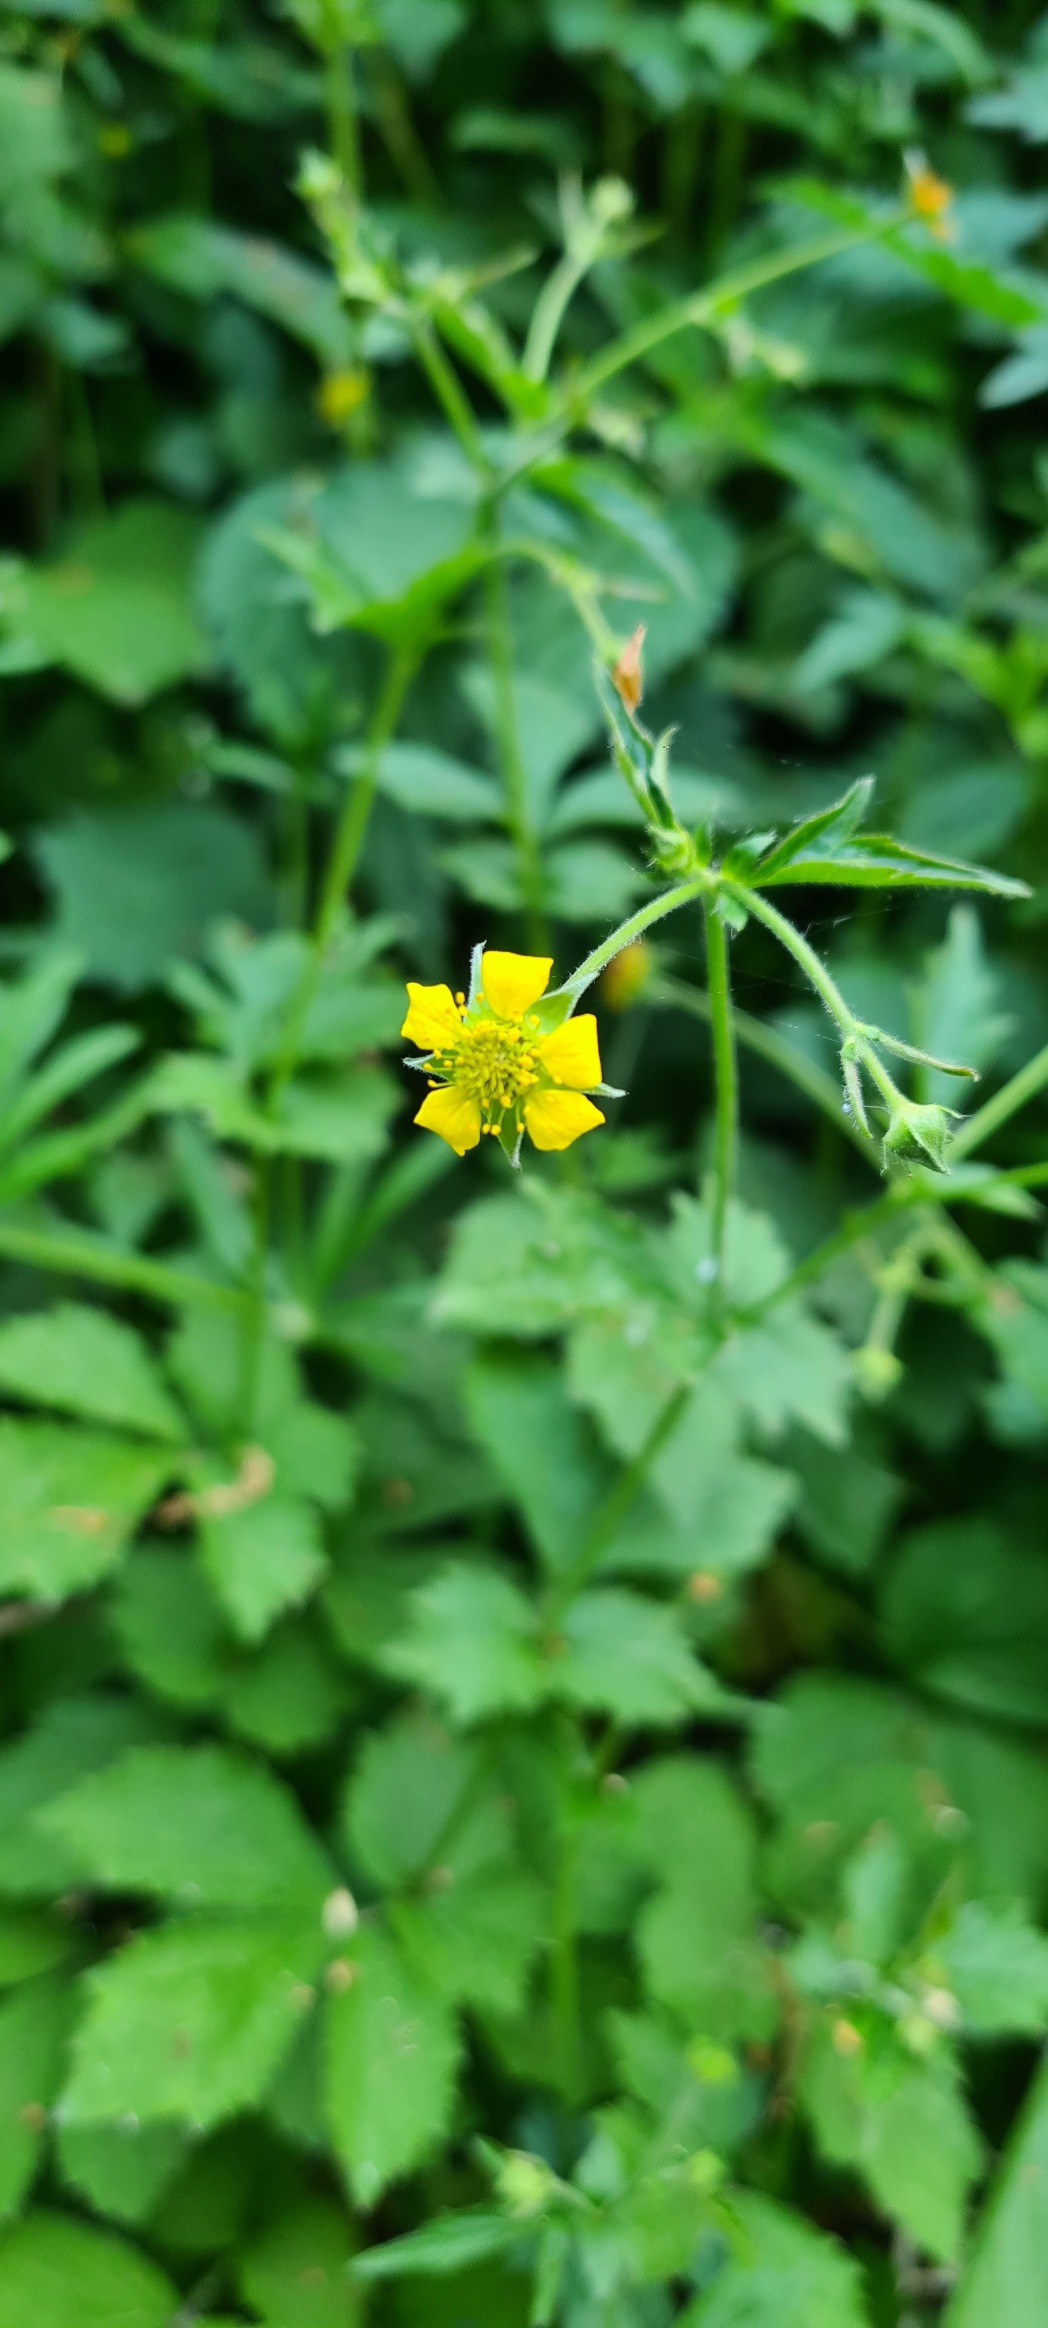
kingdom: Plantae
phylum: Tracheophyta
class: Magnoliopsida
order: Rosales
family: Rosaceae
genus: Geum
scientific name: Geum urbanum
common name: Feber-nellikerod
